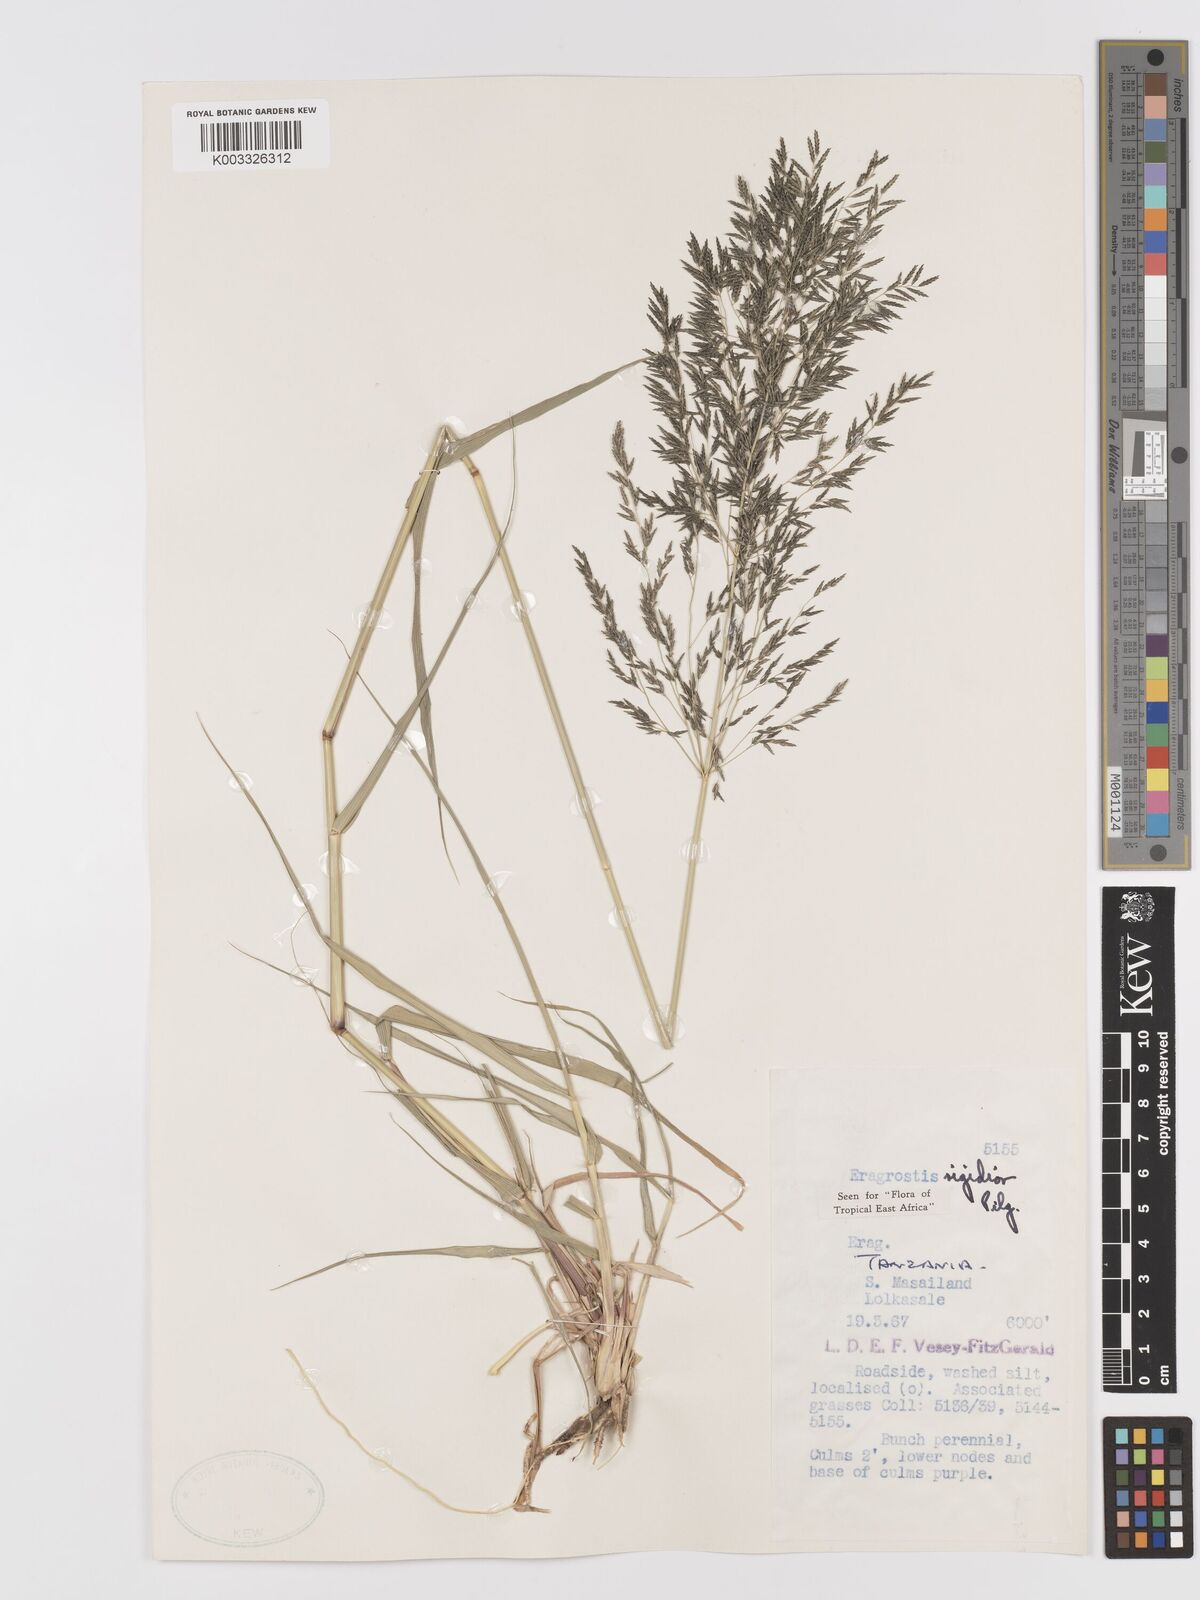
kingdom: Plantae
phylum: Tracheophyta
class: Liliopsida
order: Poales
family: Poaceae
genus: Eragrostis
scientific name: Eragrostis cylindriflora
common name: Cylinderflower lovegrass
